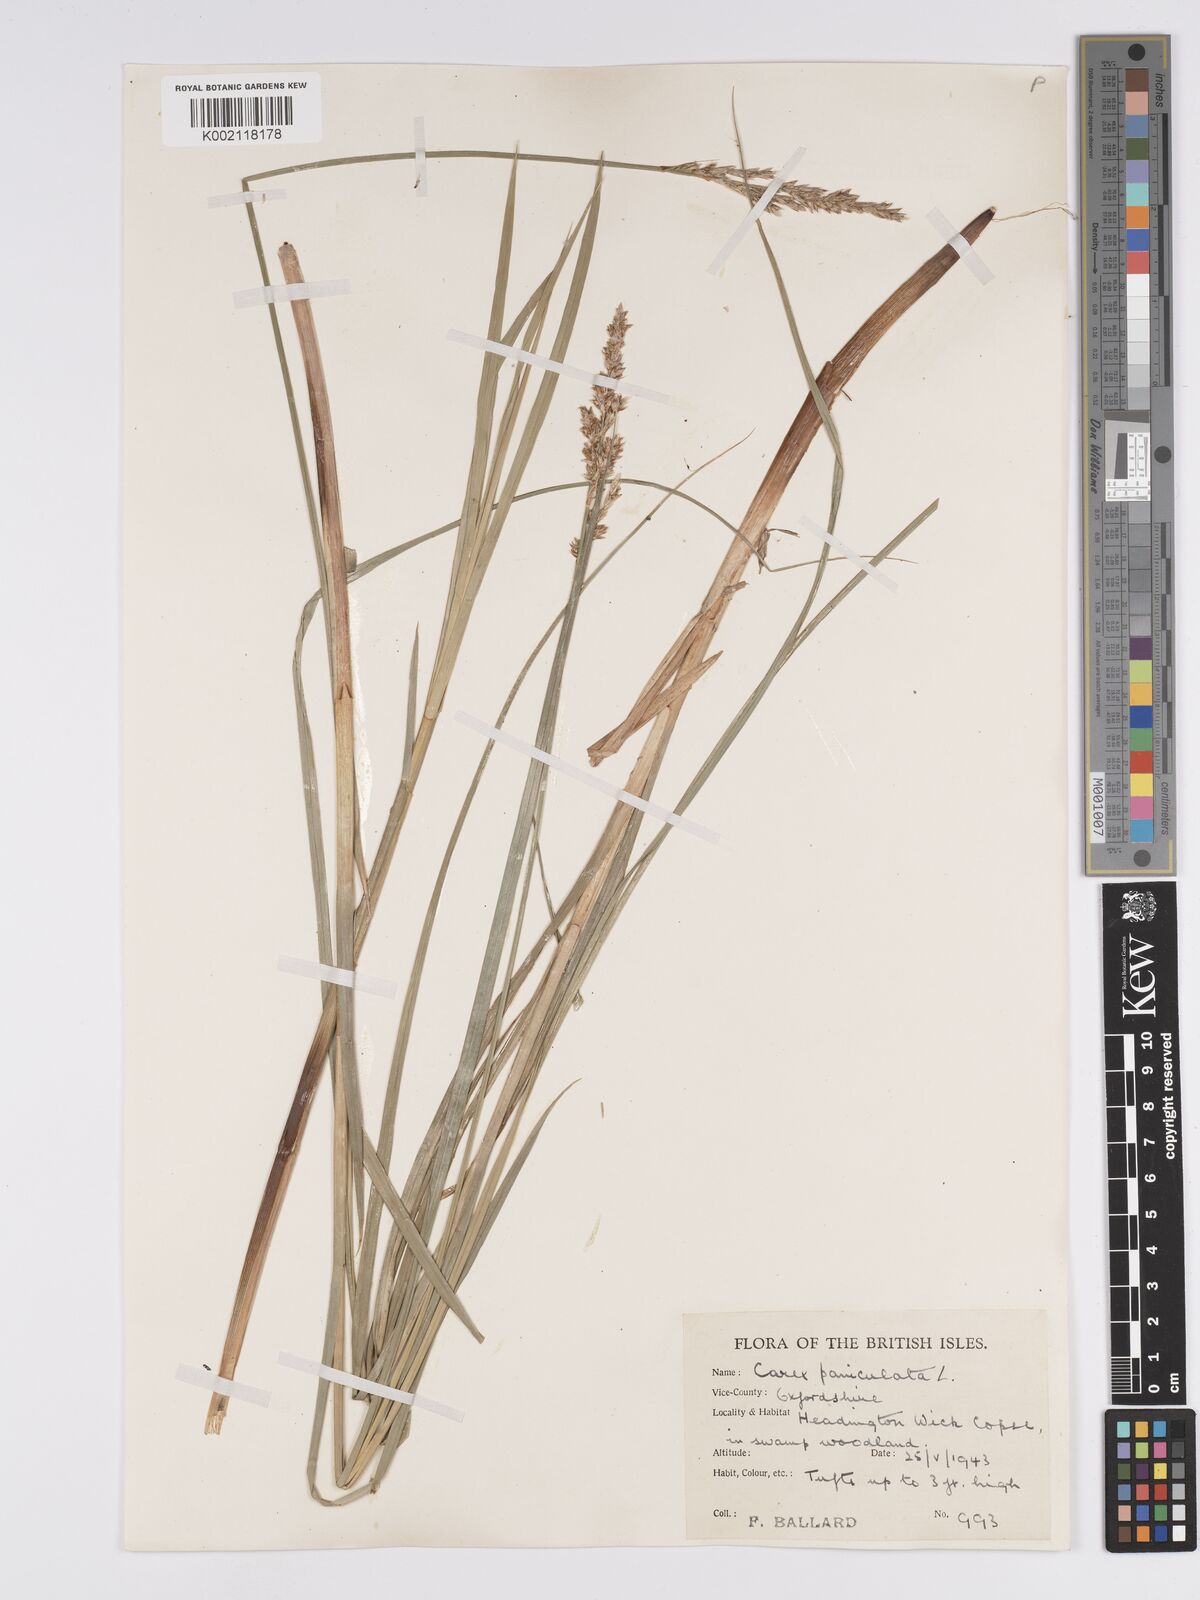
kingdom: Plantae
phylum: Tracheophyta
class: Liliopsida
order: Poales
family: Cyperaceae
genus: Carex
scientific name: Carex paniculata
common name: Greater tussock-sedge
